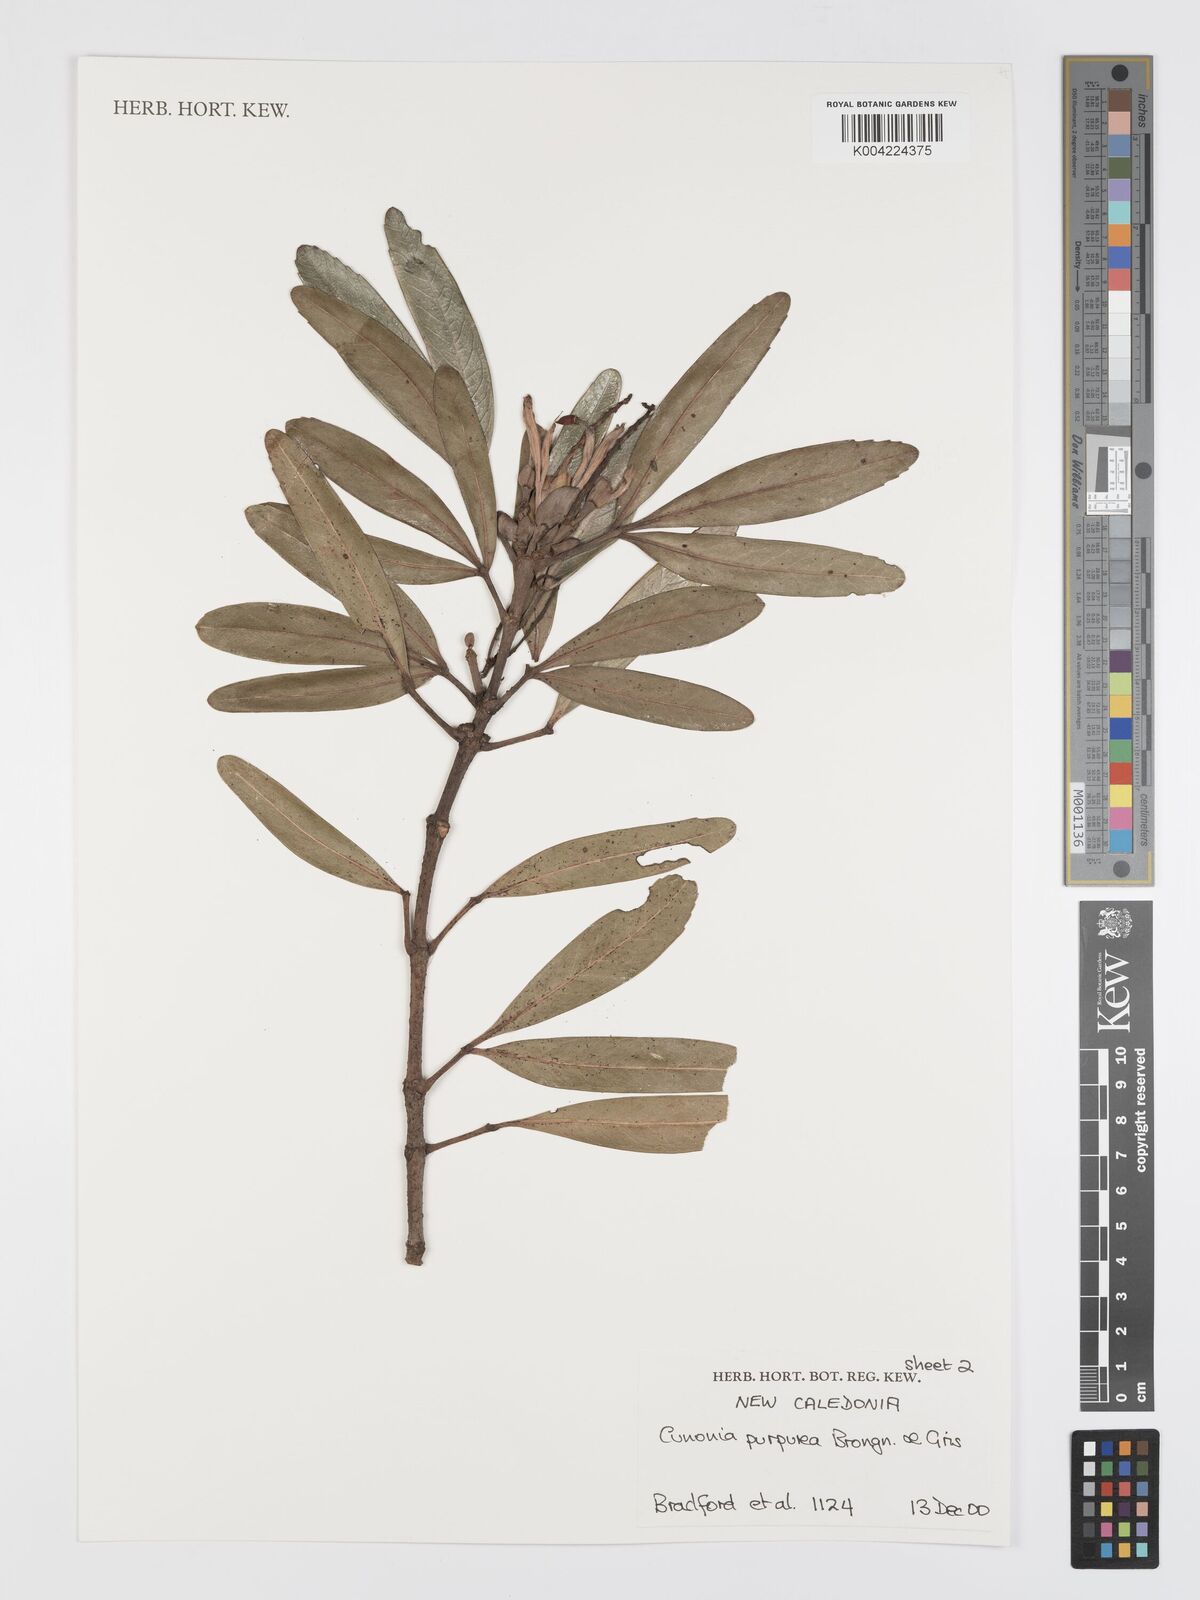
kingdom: Plantae
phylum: Tracheophyta
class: Magnoliopsida
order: Oxalidales
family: Cunoniaceae
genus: Cunonia
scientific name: Cunonia purpurea
